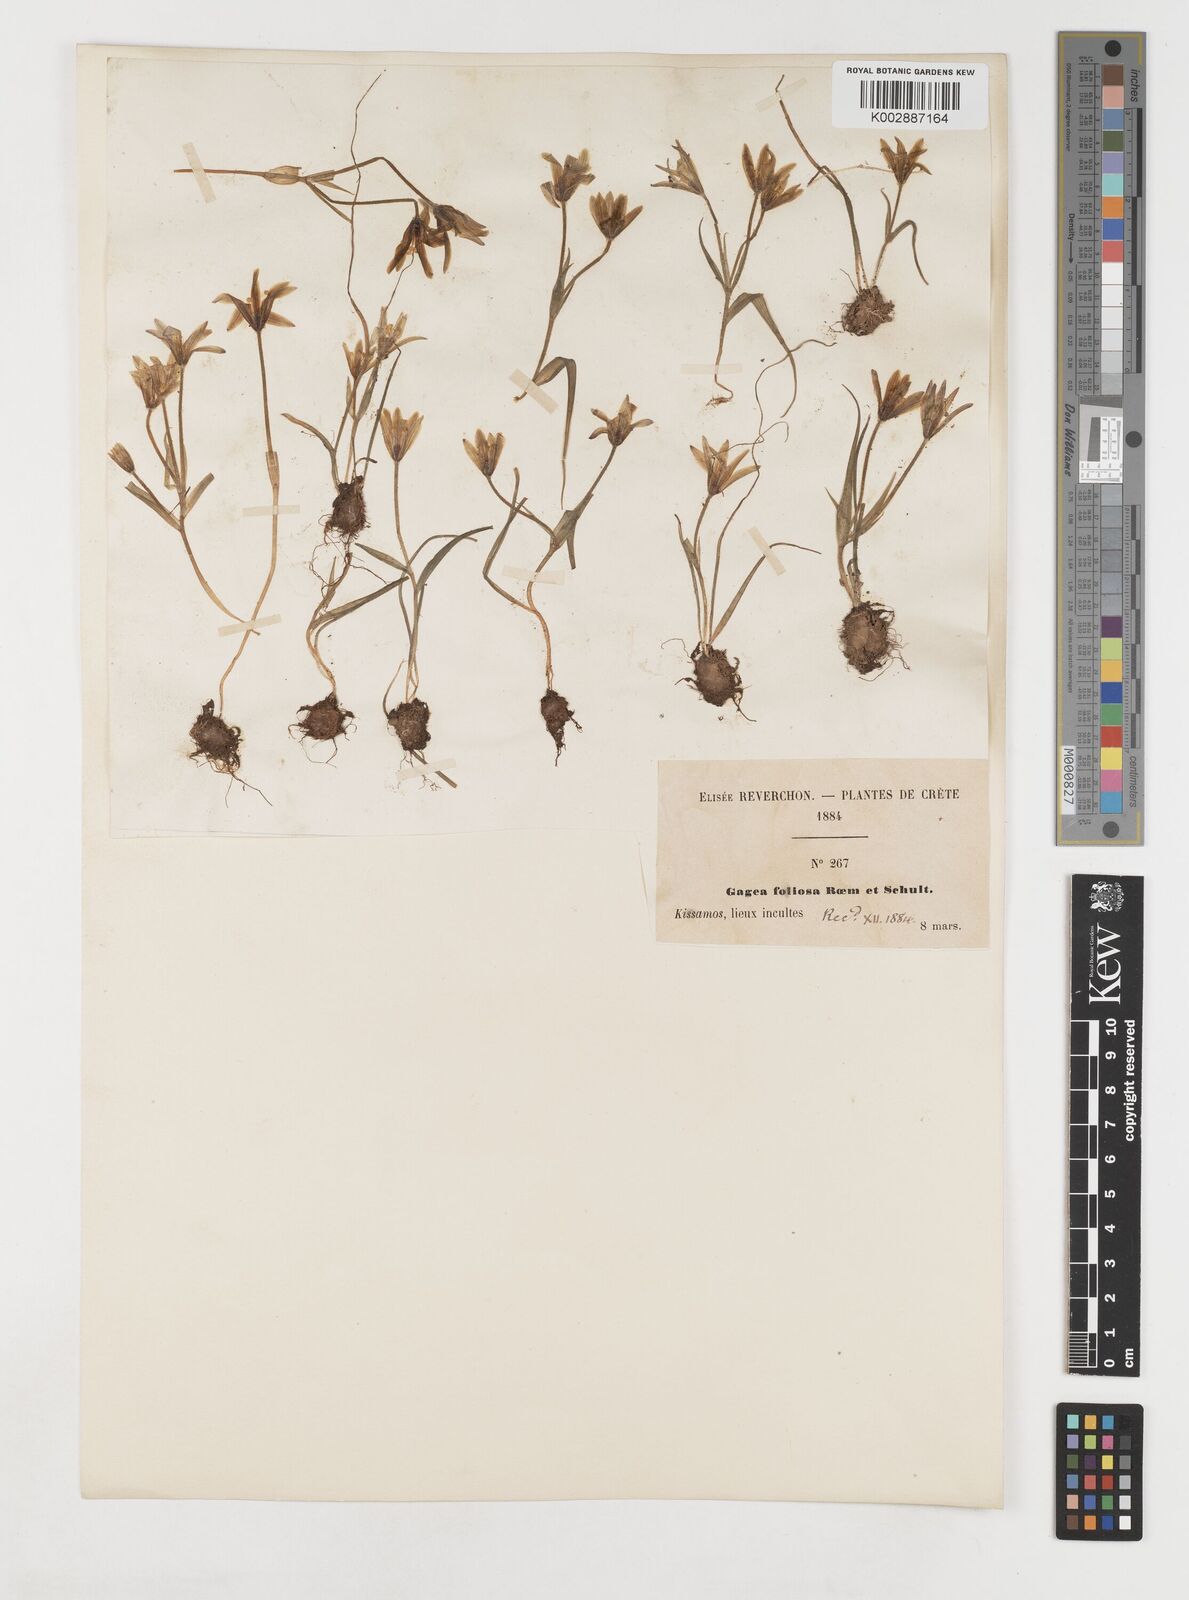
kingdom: Plantae
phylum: Tracheophyta
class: Liliopsida
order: Liliales
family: Liliaceae
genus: Gagea
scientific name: Gagea peduncularis
